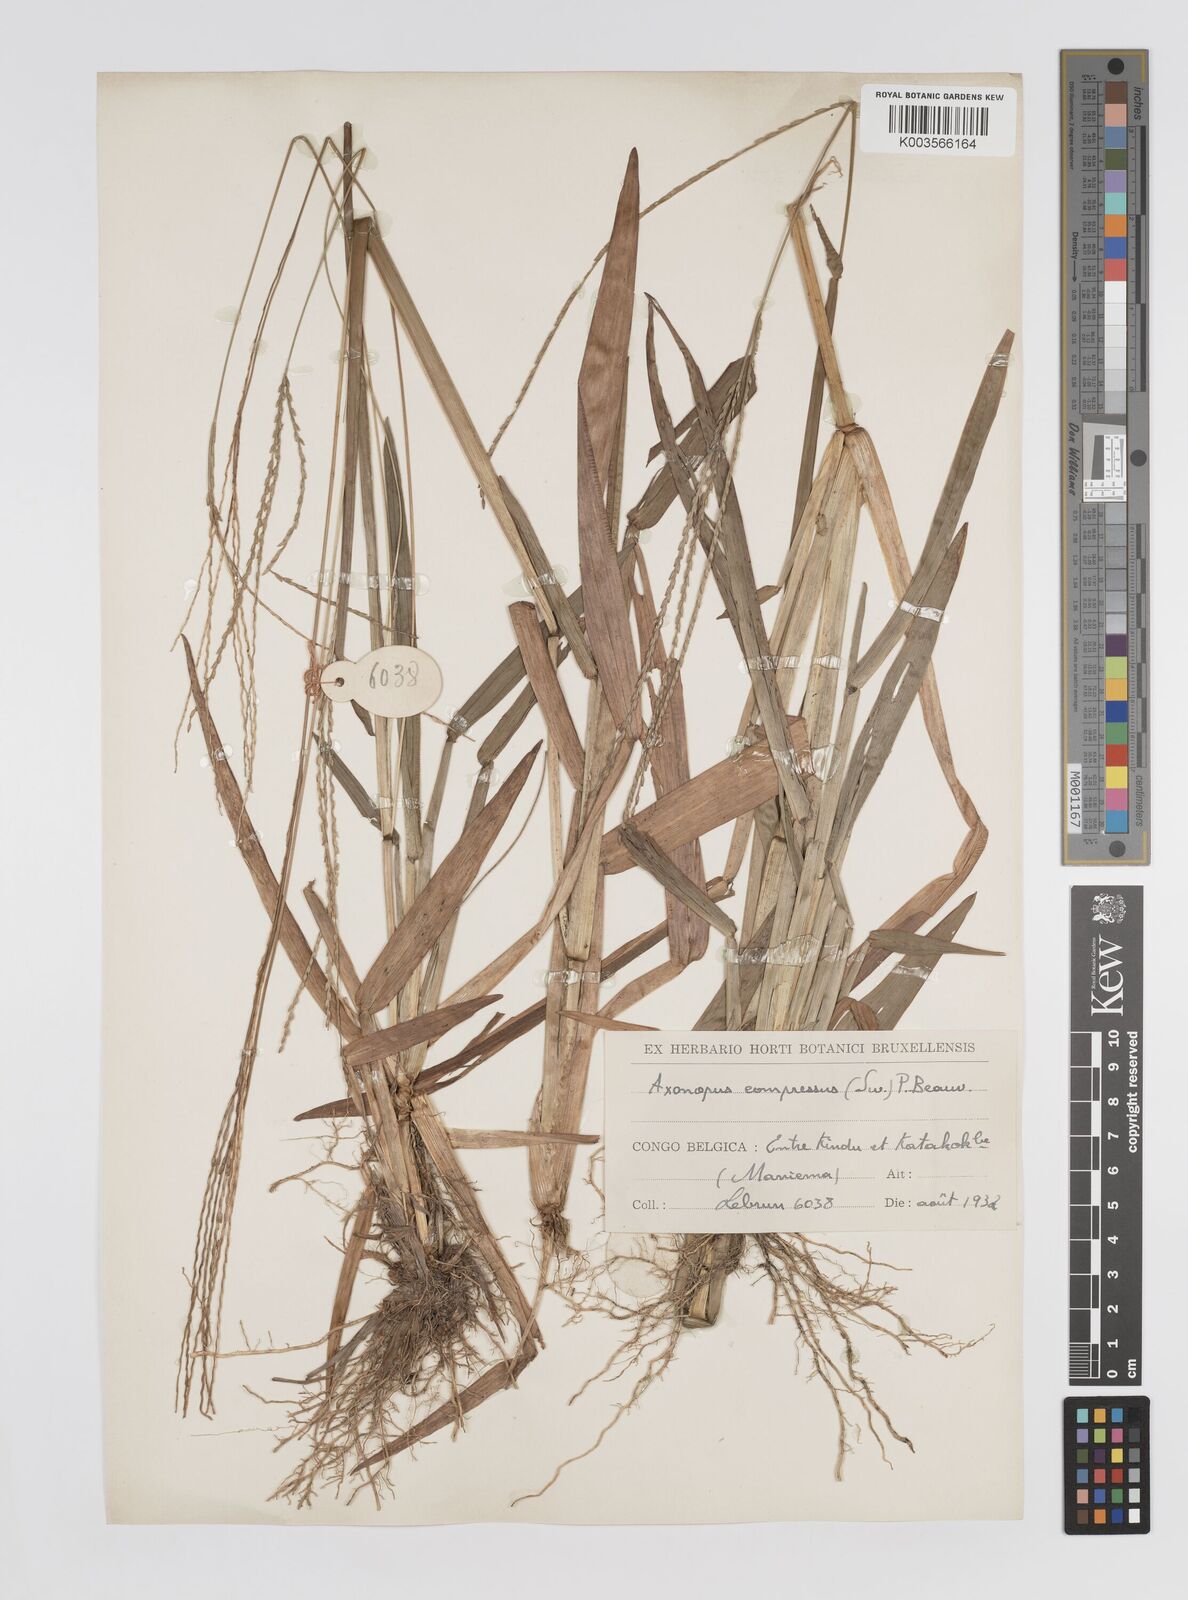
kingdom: Plantae
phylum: Tracheophyta
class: Liliopsida
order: Poales
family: Poaceae
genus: Axonopus
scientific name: Axonopus flexuosus
